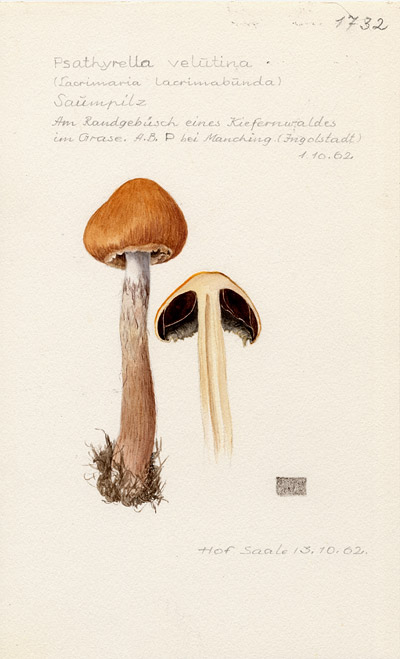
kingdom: Fungi
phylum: Basidiomycota
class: Agaricomycetes
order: Agaricales
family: Psathyrellaceae
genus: Lacrymaria
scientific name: Lacrymaria lacrymabunda
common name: Weeping widow
